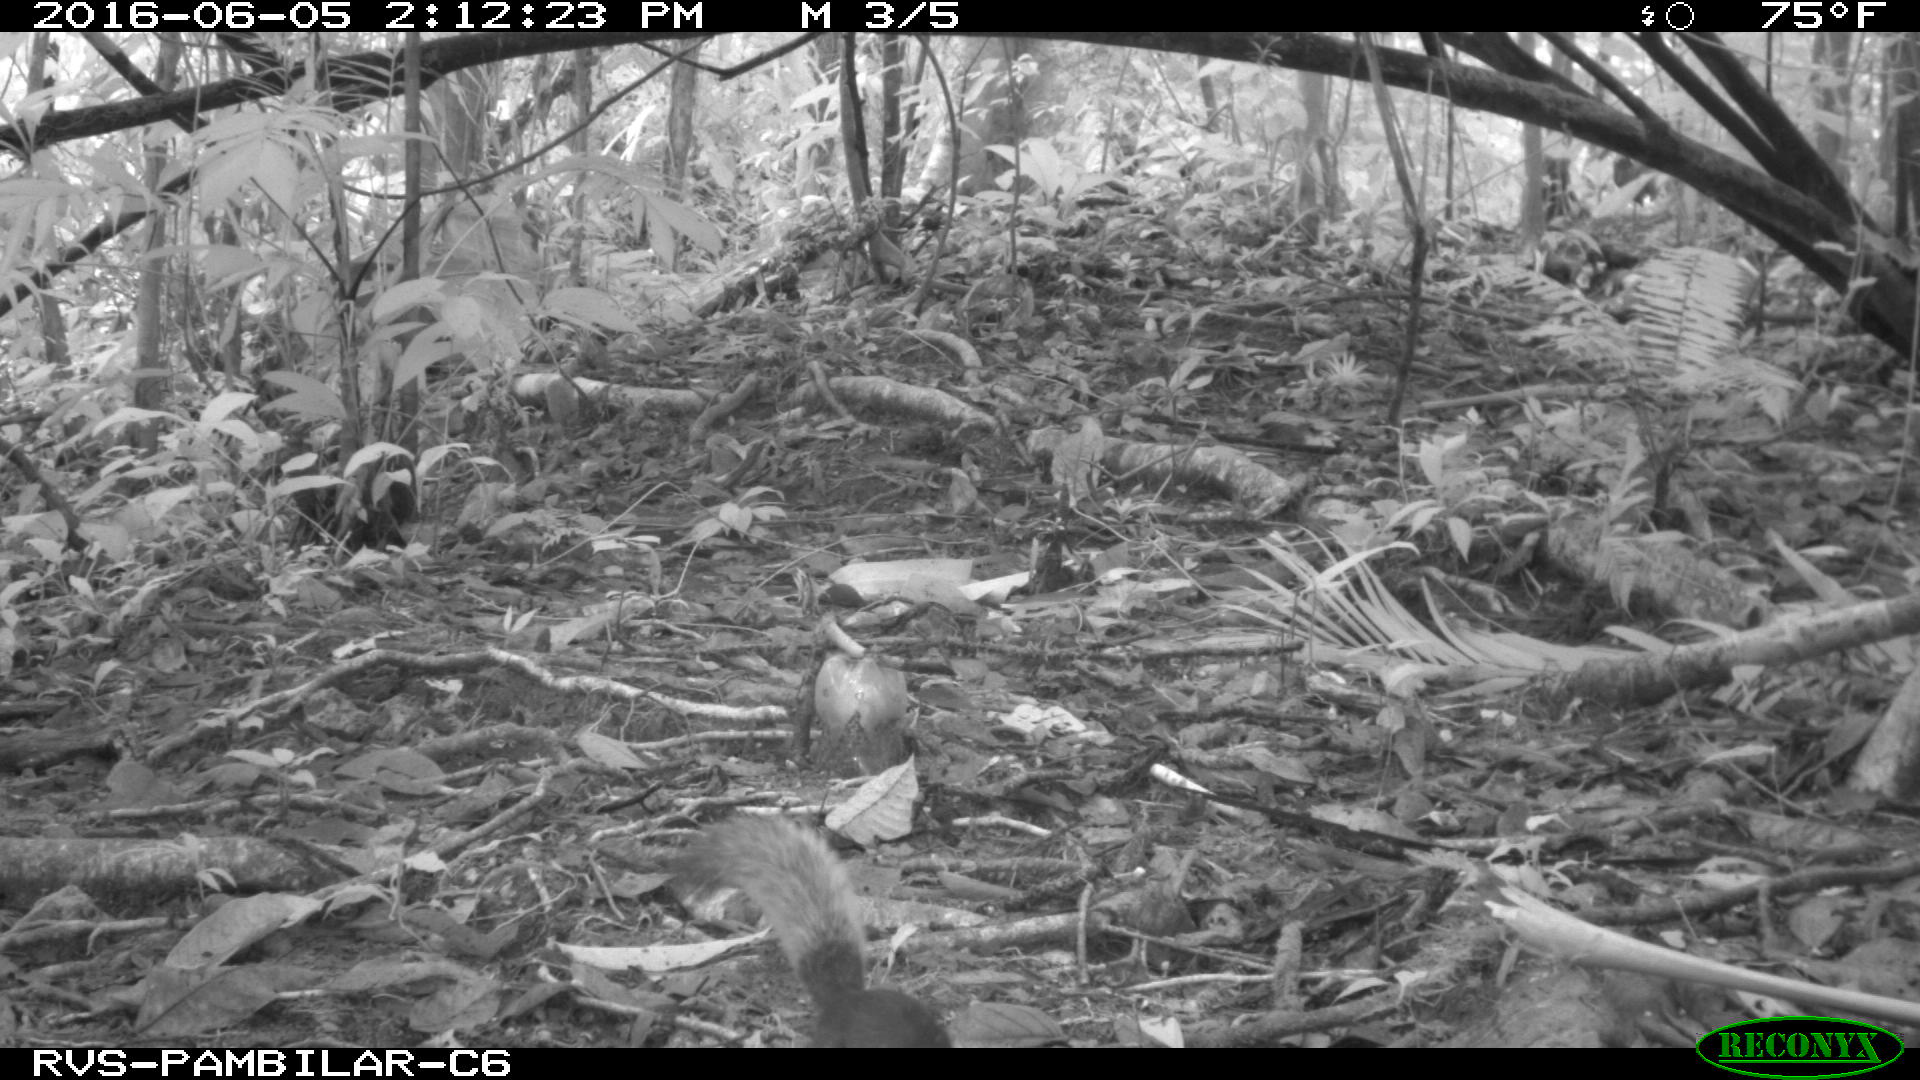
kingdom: Animalia
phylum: Chordata
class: Mammalia
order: Rodentia
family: Sciuridae
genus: Sciurus
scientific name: Sciurus granatensis
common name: Red-tailed squirrel
